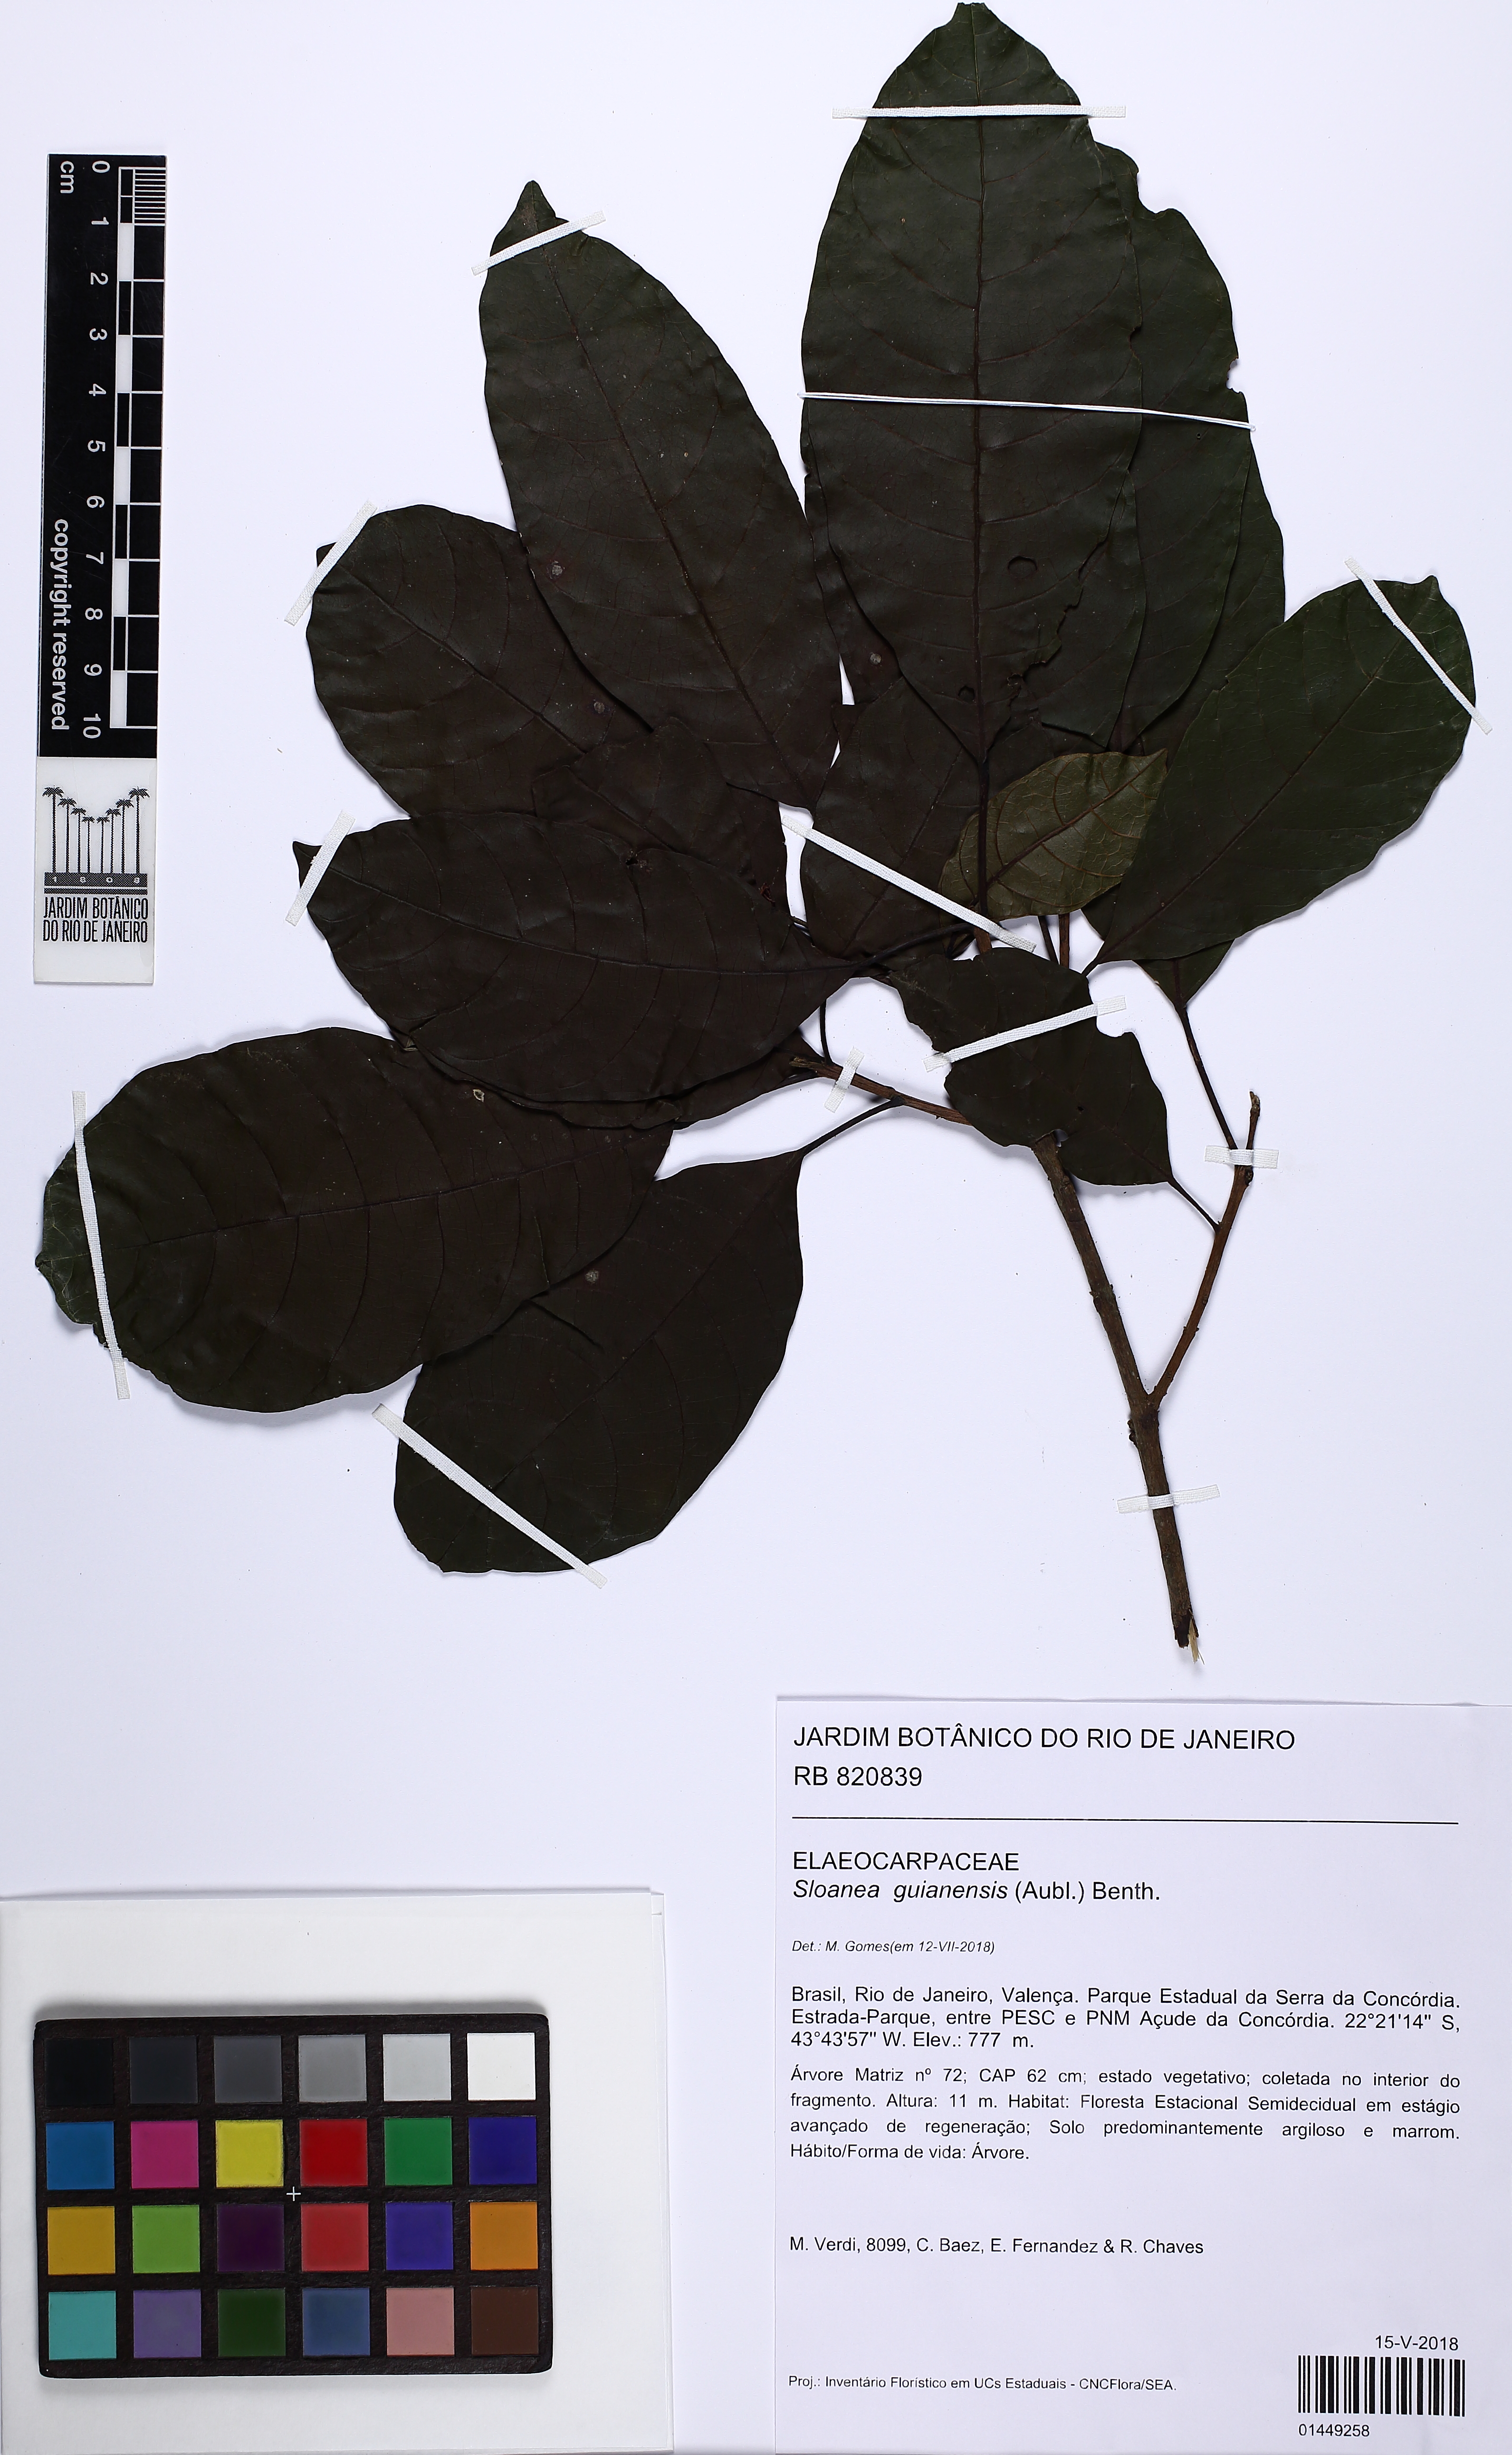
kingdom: Plantae
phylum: Tracheophyta
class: Magnoliopsida
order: Oxalidales
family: Elaeocarpaceae
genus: Sloanea
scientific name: Sloanea guianensis
